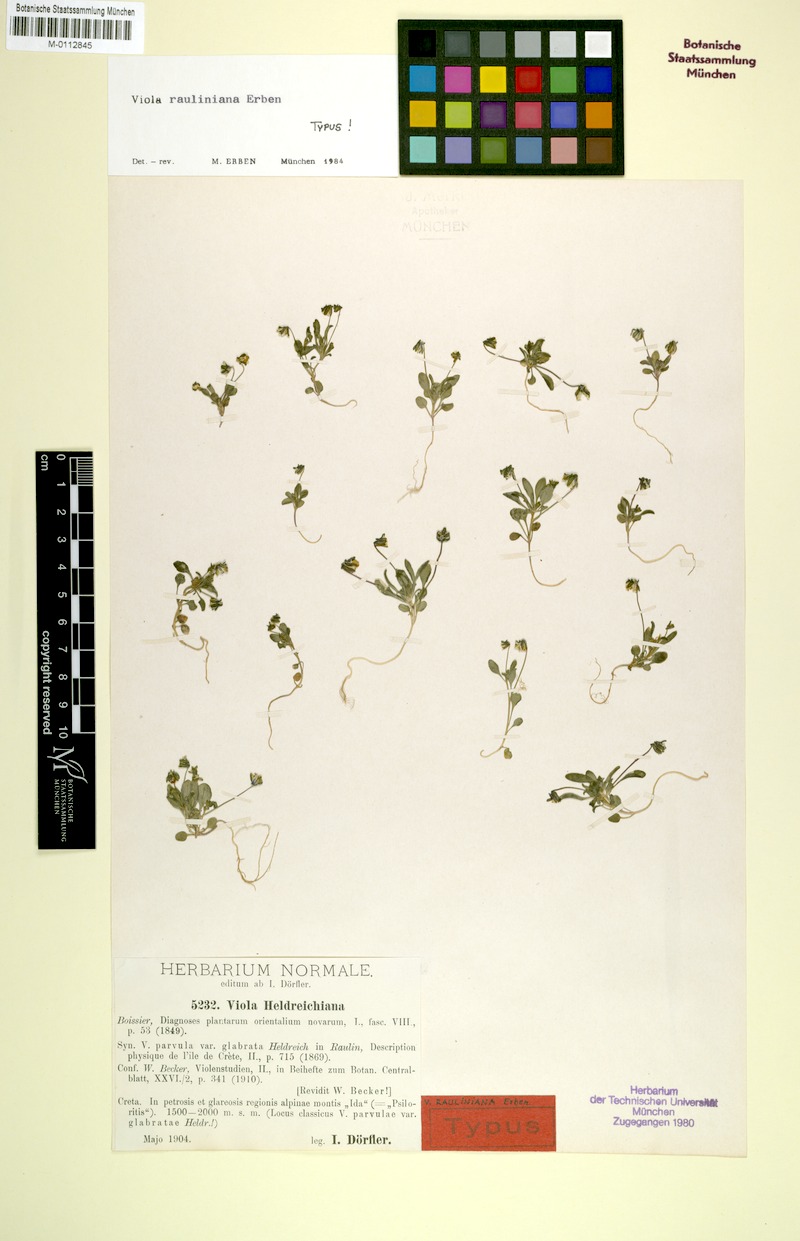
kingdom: Plantae
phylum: Tracheophyta
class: Magnoliopsida
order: Malpighiales
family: Violaceae
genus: Viola
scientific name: Viola rauliniana
